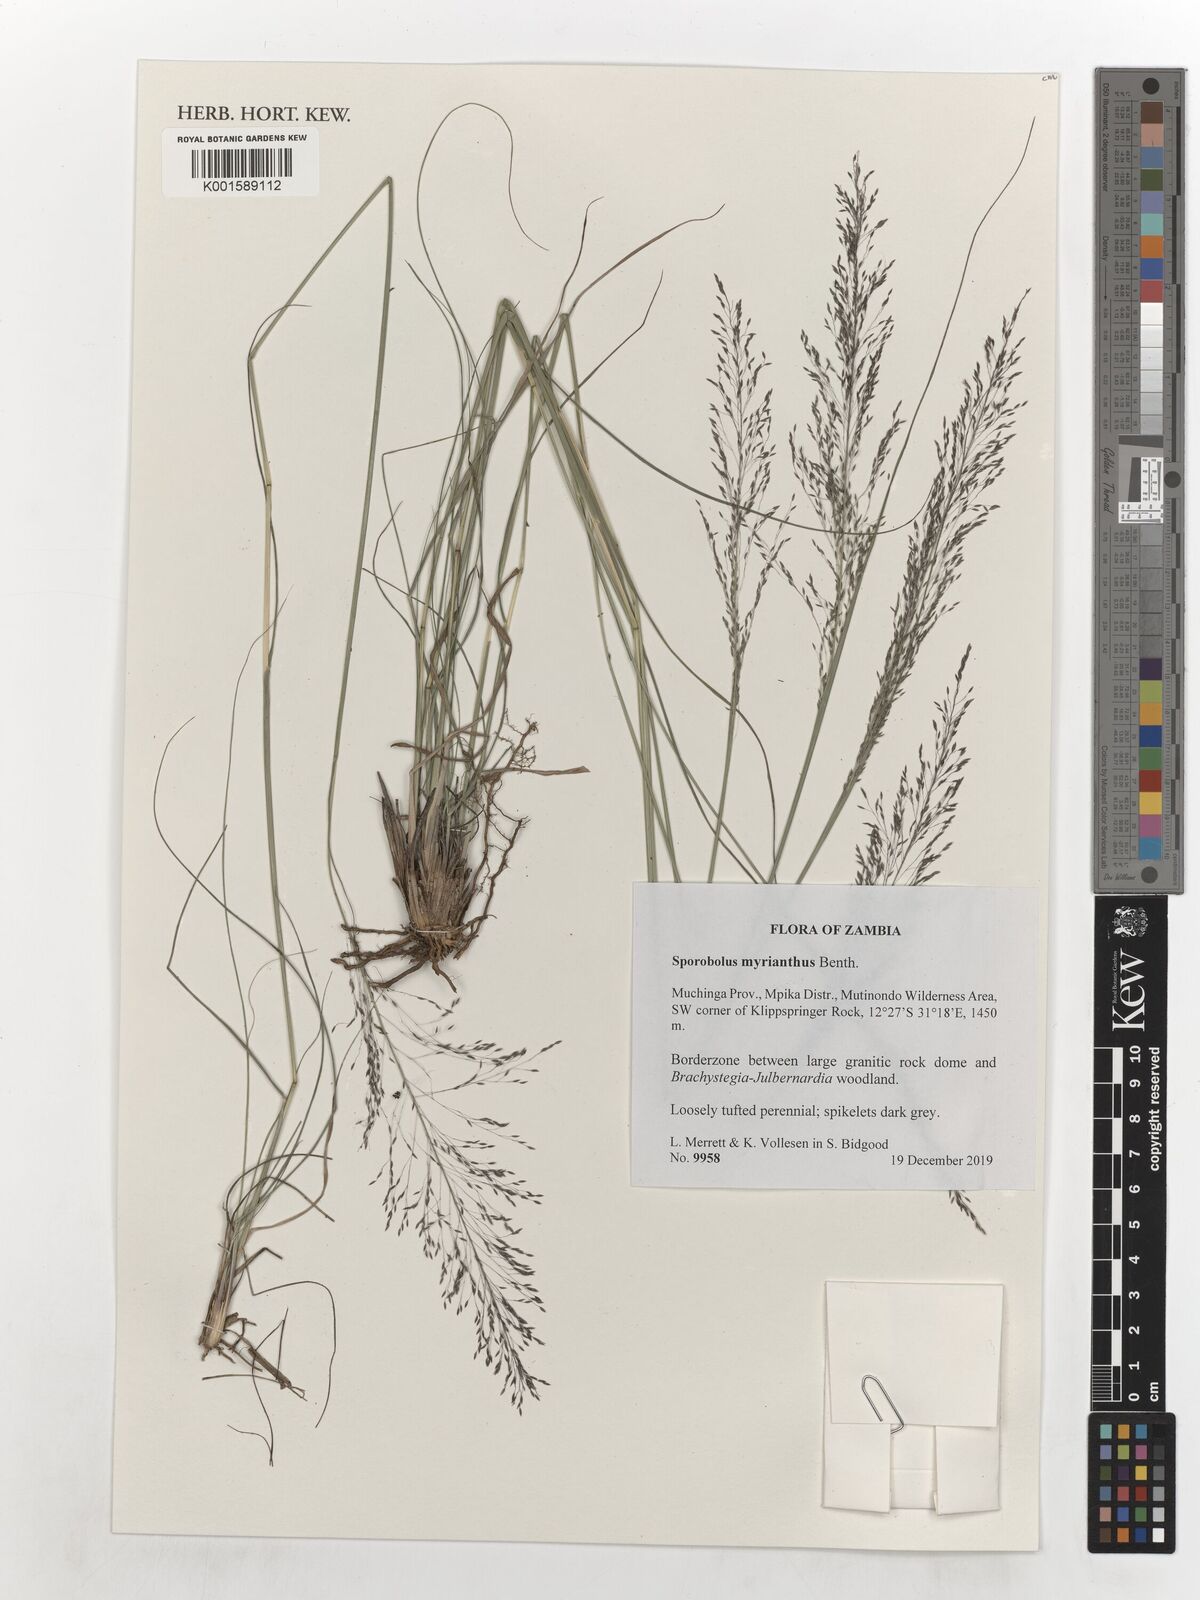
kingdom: Plantae
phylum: Tracheophyta
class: Liliopsida
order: Poales
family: Poaceae
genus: Sporobolus
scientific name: Sporobolus myrianthus
